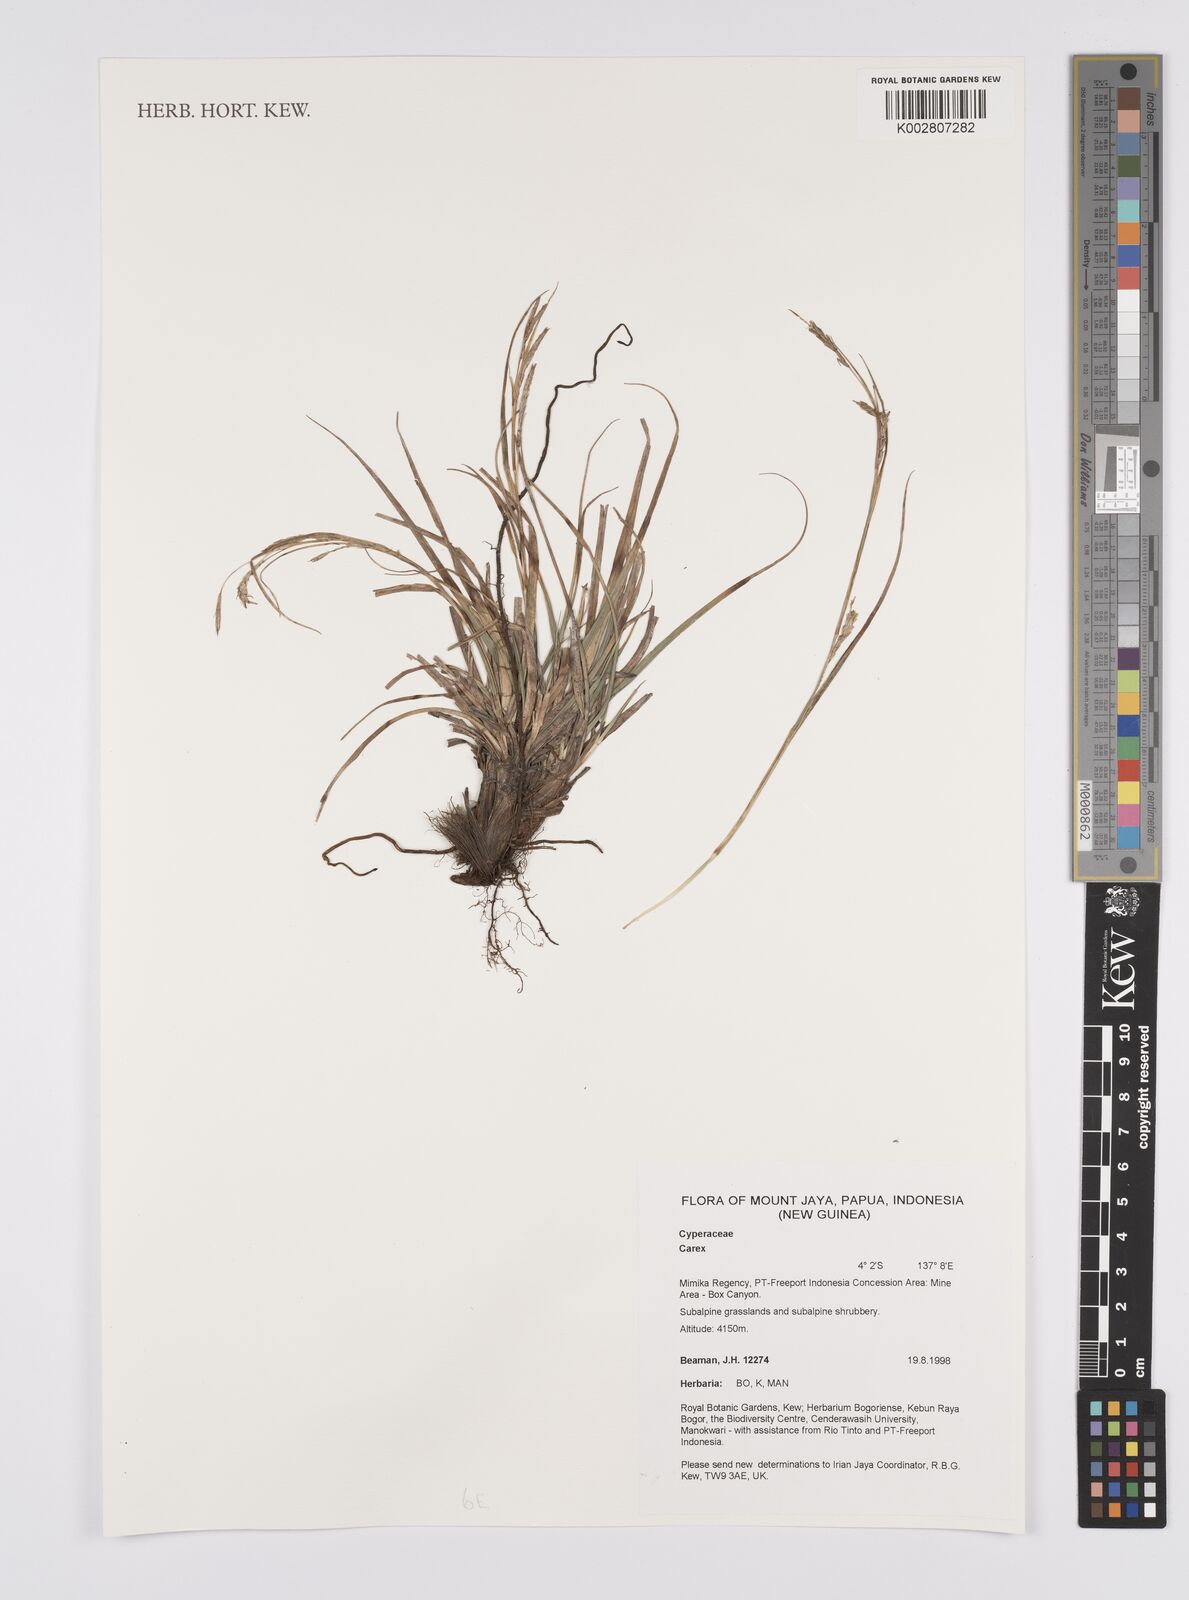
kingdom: Plantae
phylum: Tracheophyta
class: Liliopsida
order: Poales
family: Cyperaceae
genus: Carex
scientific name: Carex
